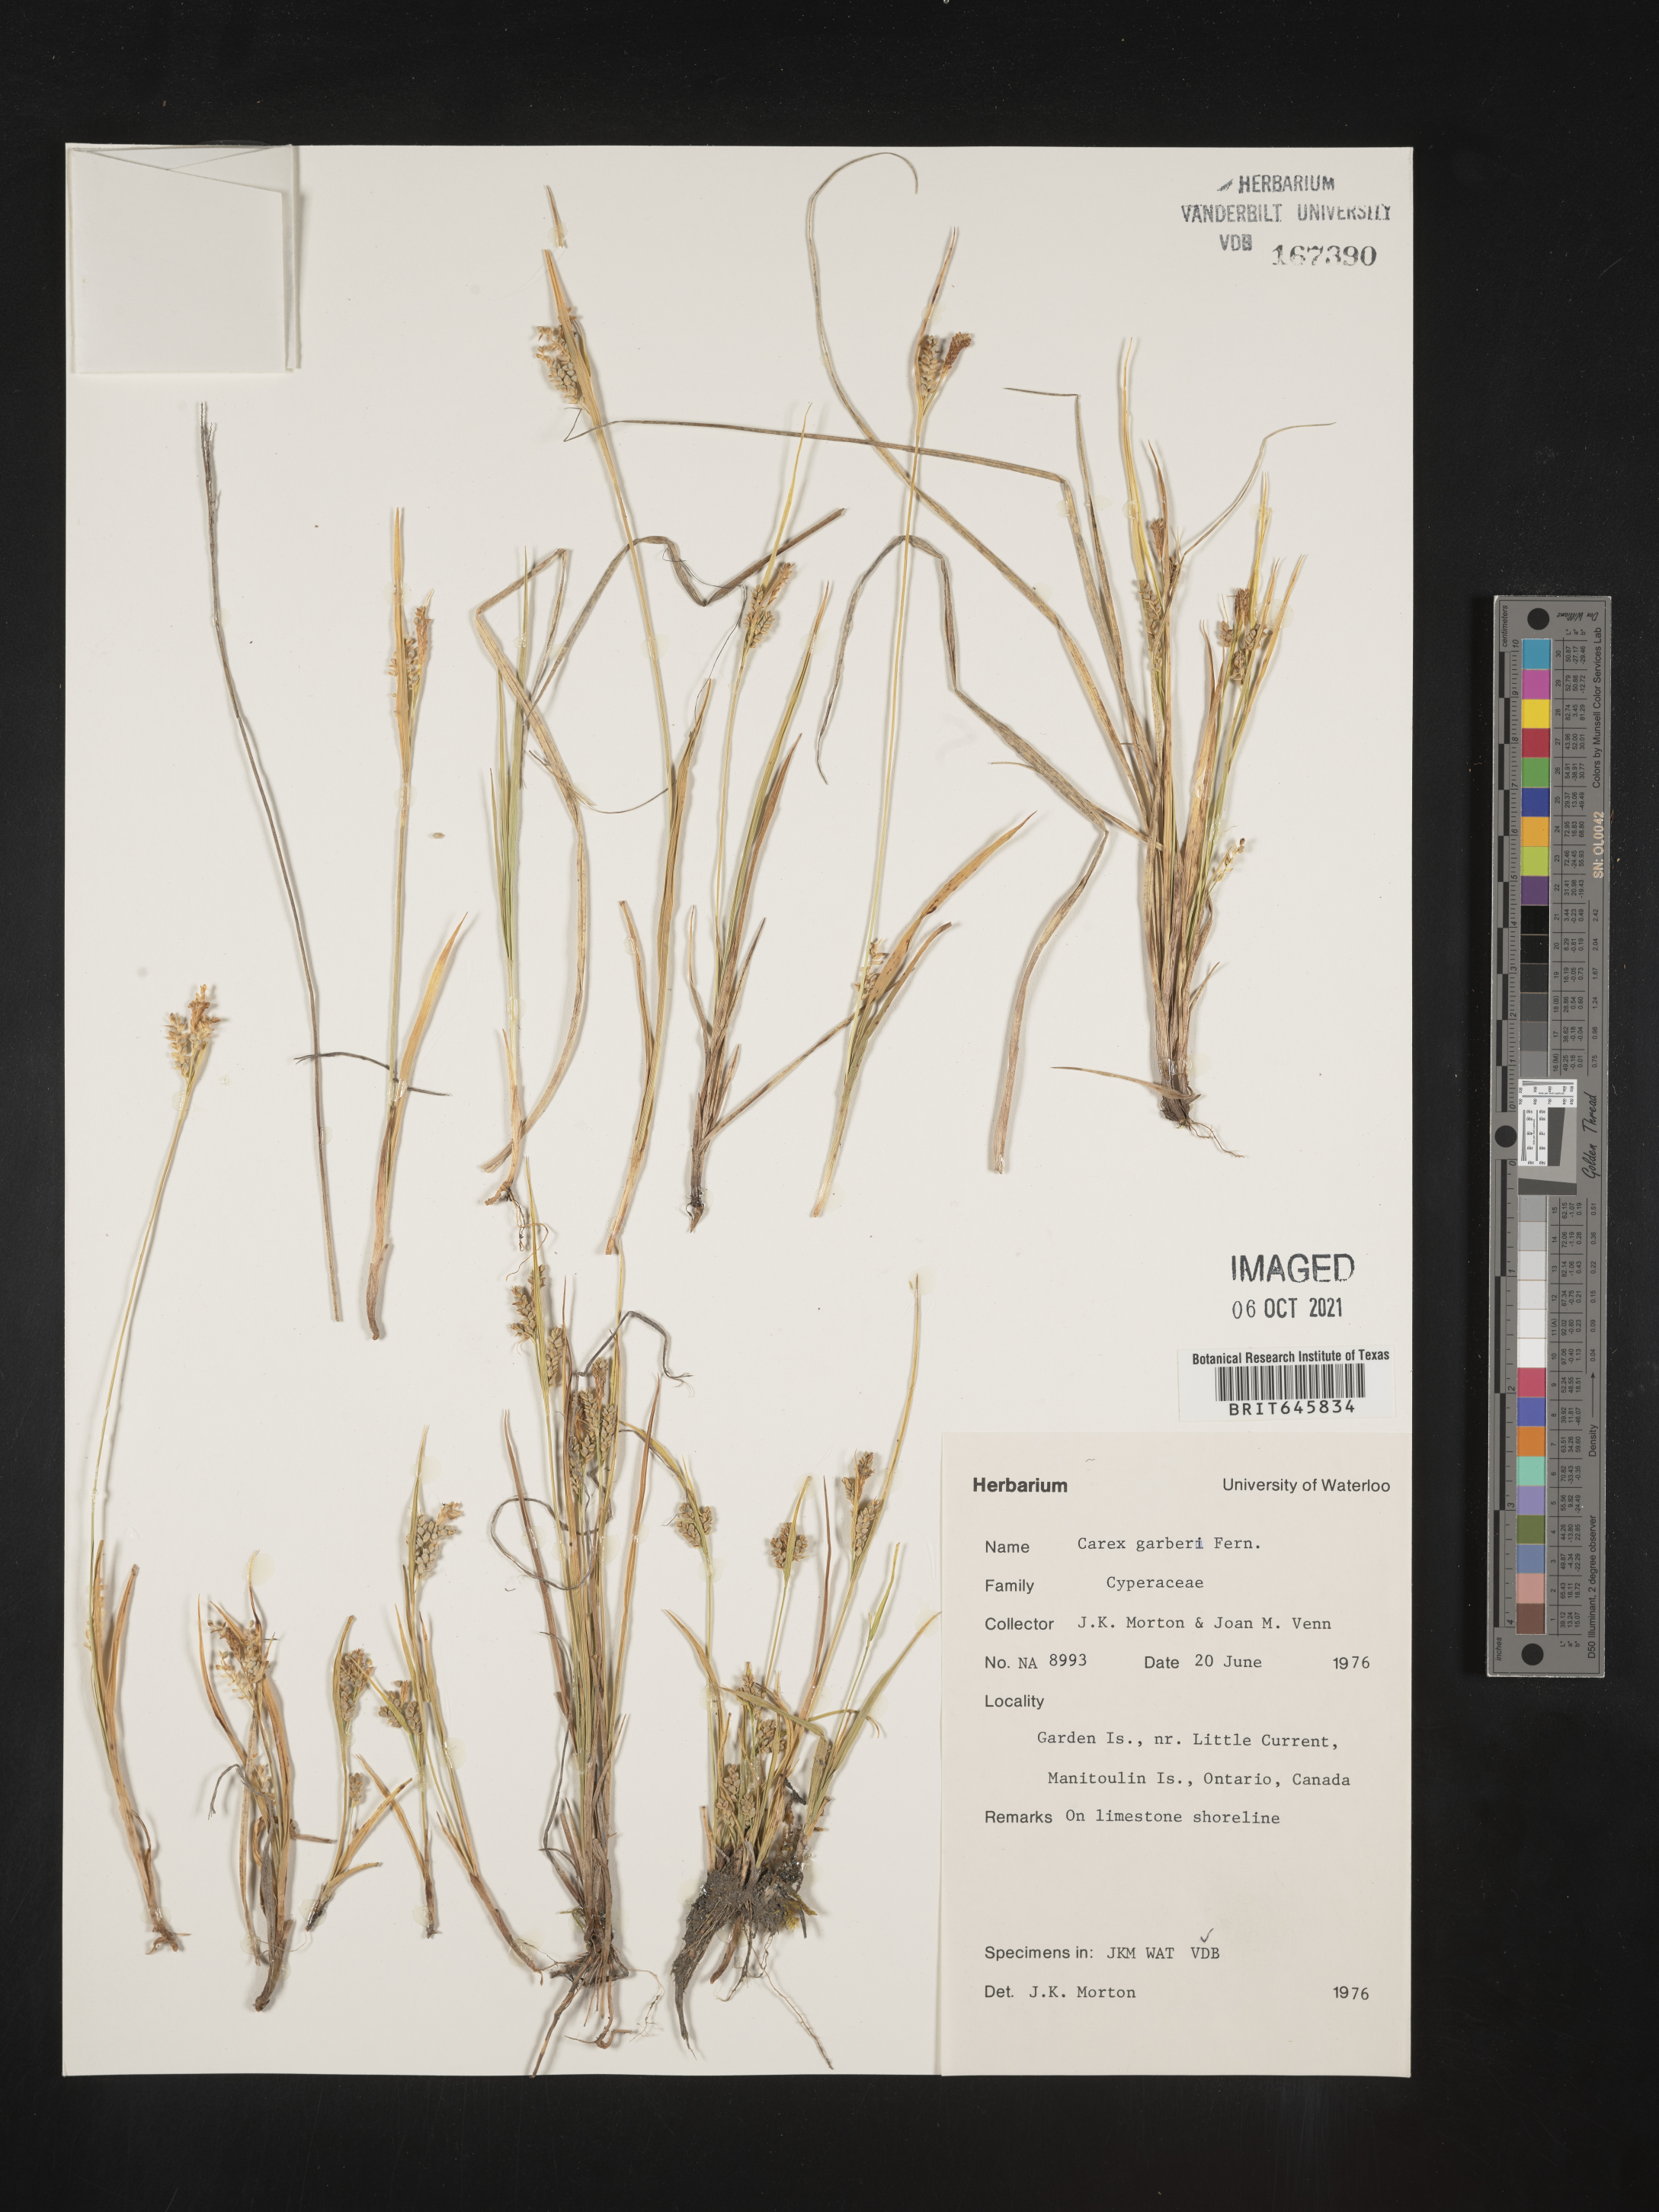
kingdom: Plantae
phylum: Tracheophyta
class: Liliopsida
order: Poales
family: Cyperaceae
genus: Carex
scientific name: Carex garberi
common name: Elk sedge
